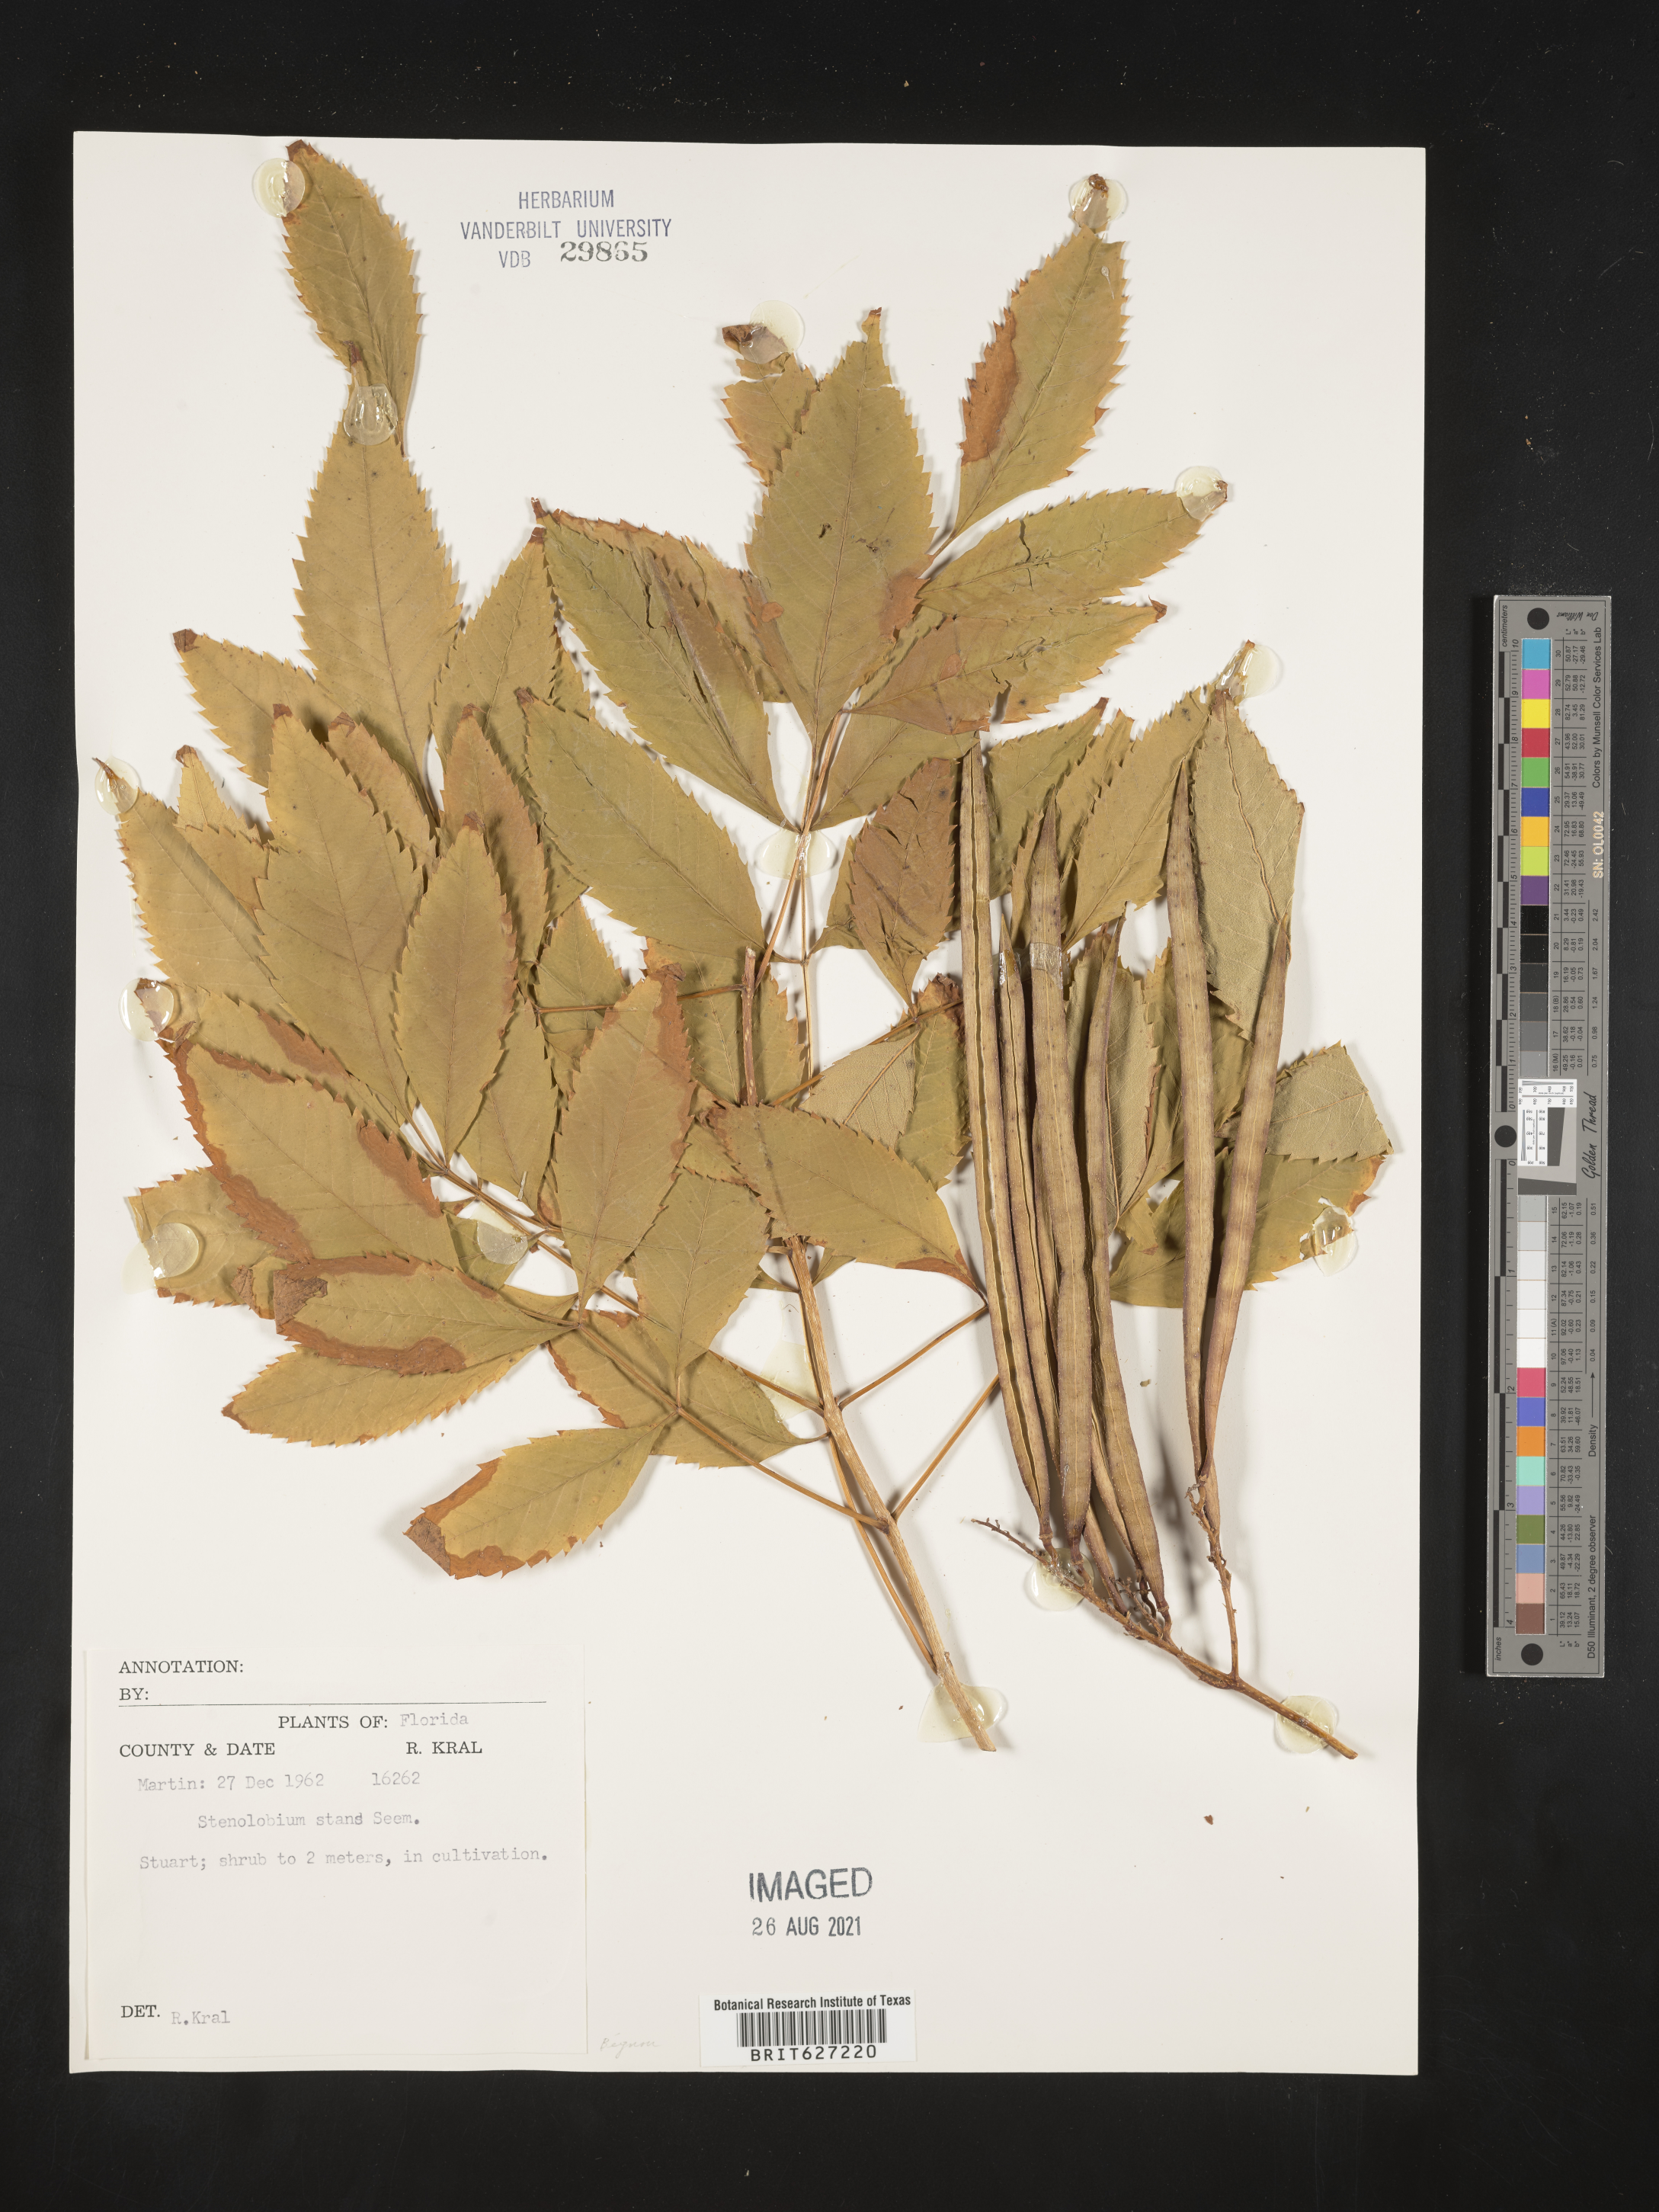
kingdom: Plantae
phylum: Tracheophyta
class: Magnoliopsida
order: Lamiales
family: Bignoniaceae
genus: Tecoma
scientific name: Tecoma stans
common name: Yellow trumpetbush
